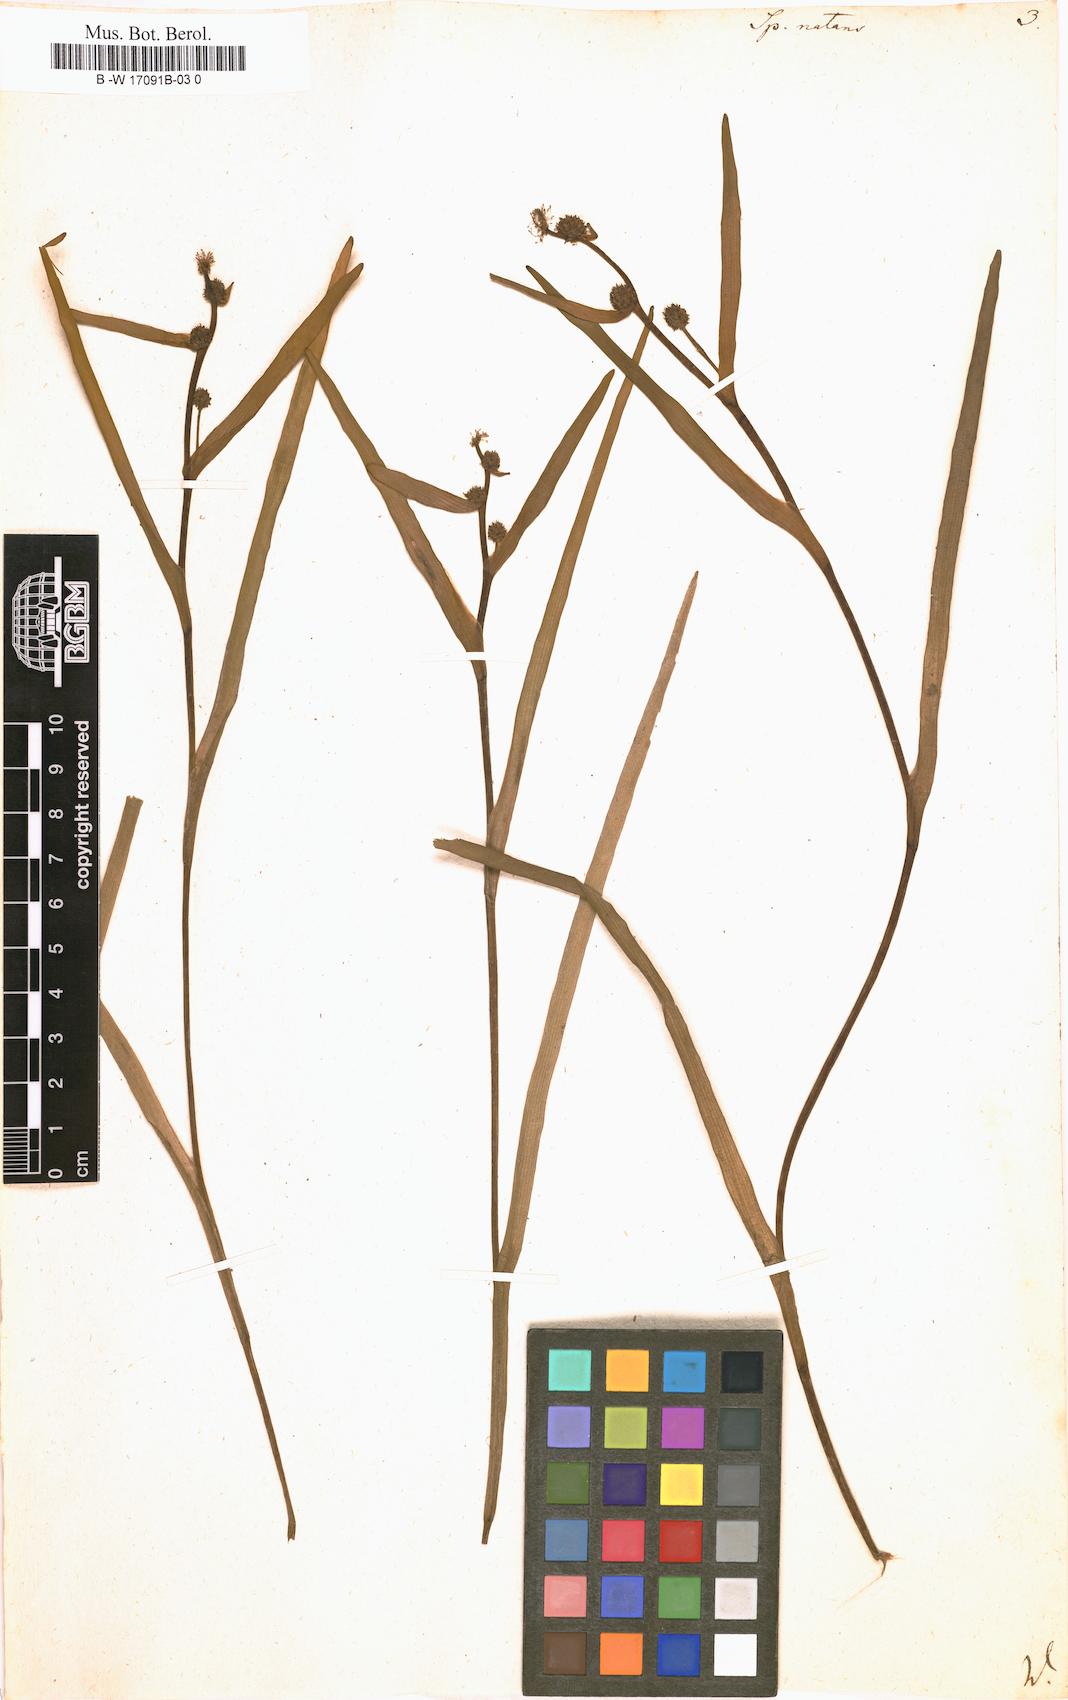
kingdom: Plantae
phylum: Tracheophyta
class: Liliopsida
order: Poales
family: Typhaceae
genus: Sparganium
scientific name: Sparganium natans
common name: Least bur-reed
